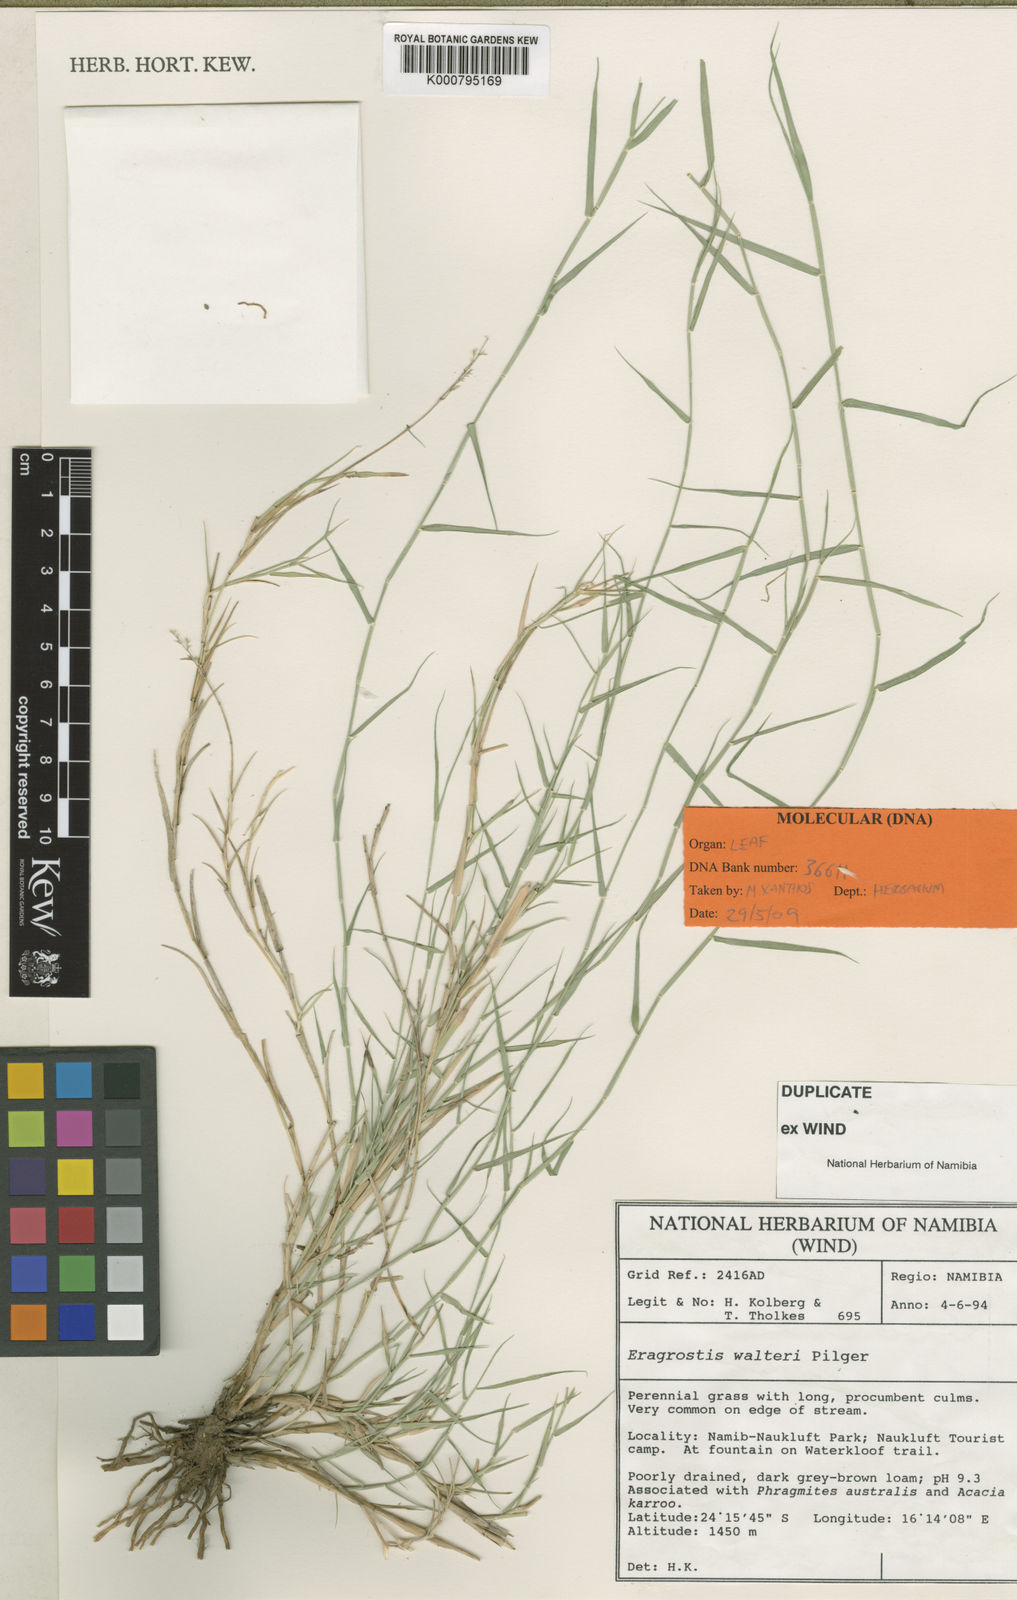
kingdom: Plantae
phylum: Tracheophyta
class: Liliopsida
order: Poales
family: Poaceae
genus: Pratochloa
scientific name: Pratochloa walteri
